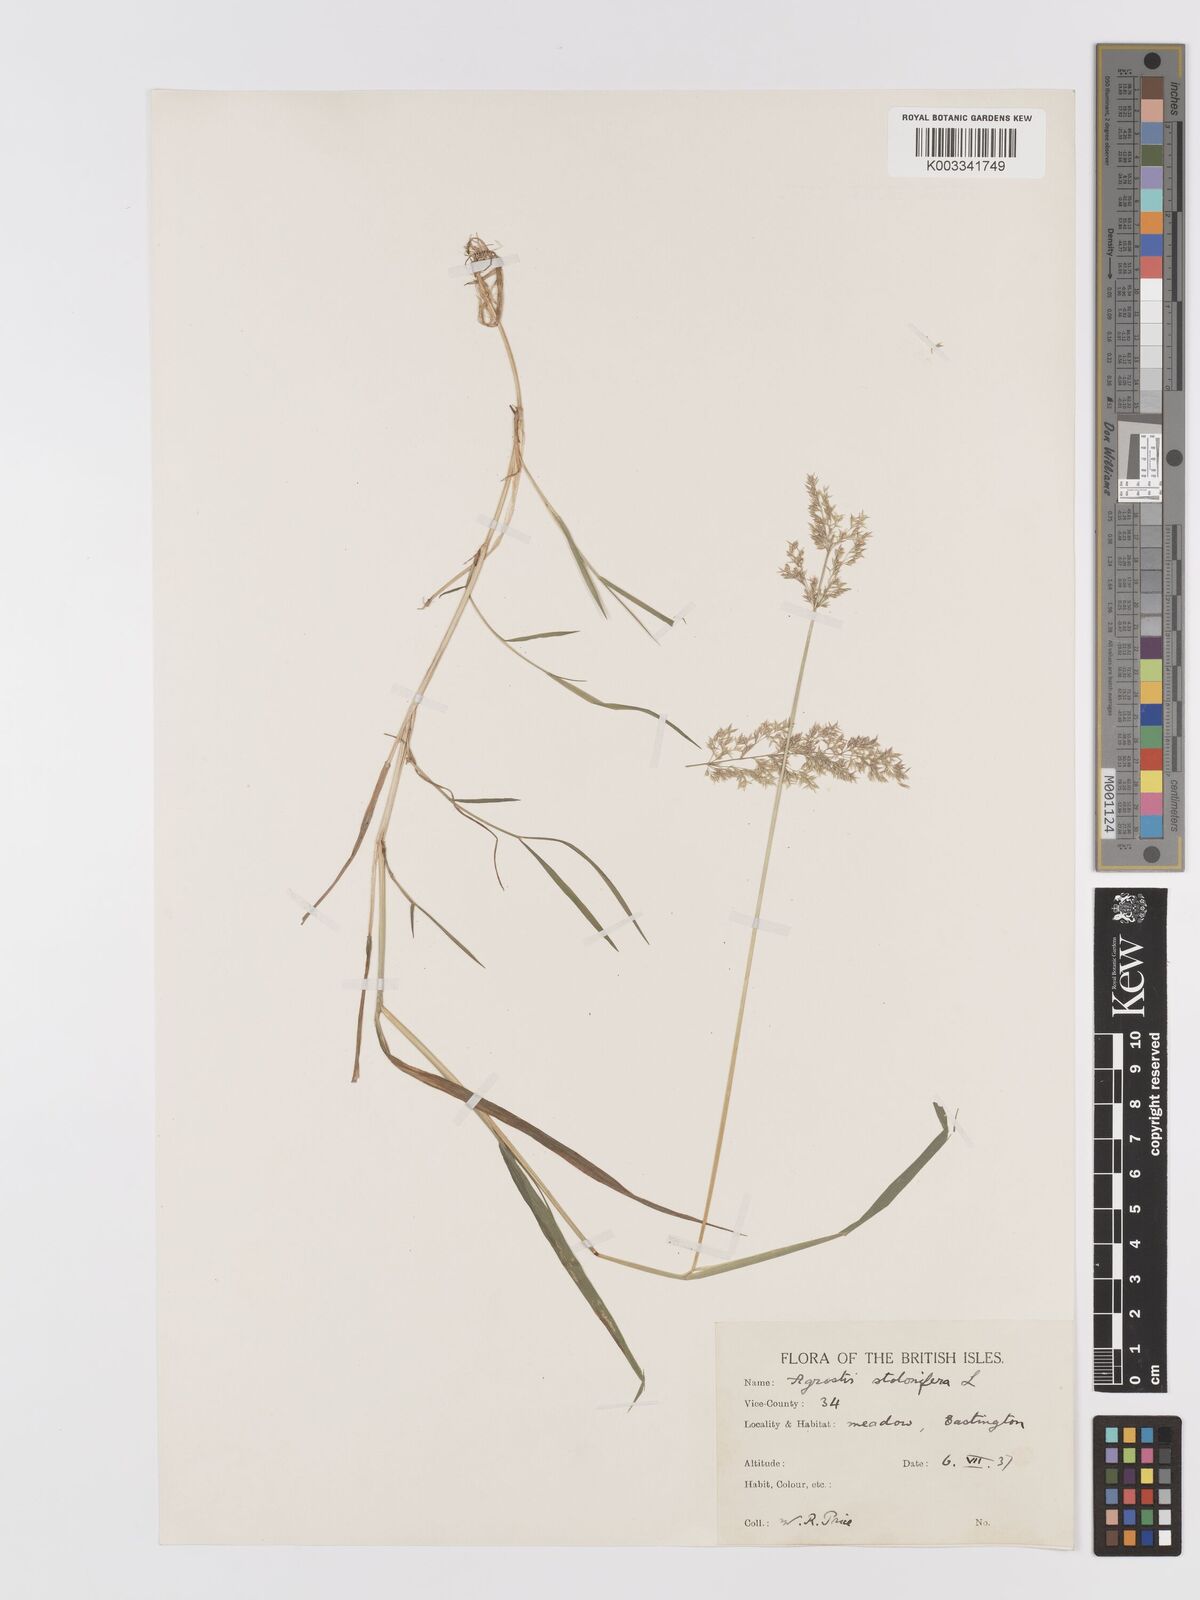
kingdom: Plantae
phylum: Tracheophyta
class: Liliopsida
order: Poales
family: Poaceae
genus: Agrostis
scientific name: Agrostis stolonifera
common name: Creeping bentgrass
